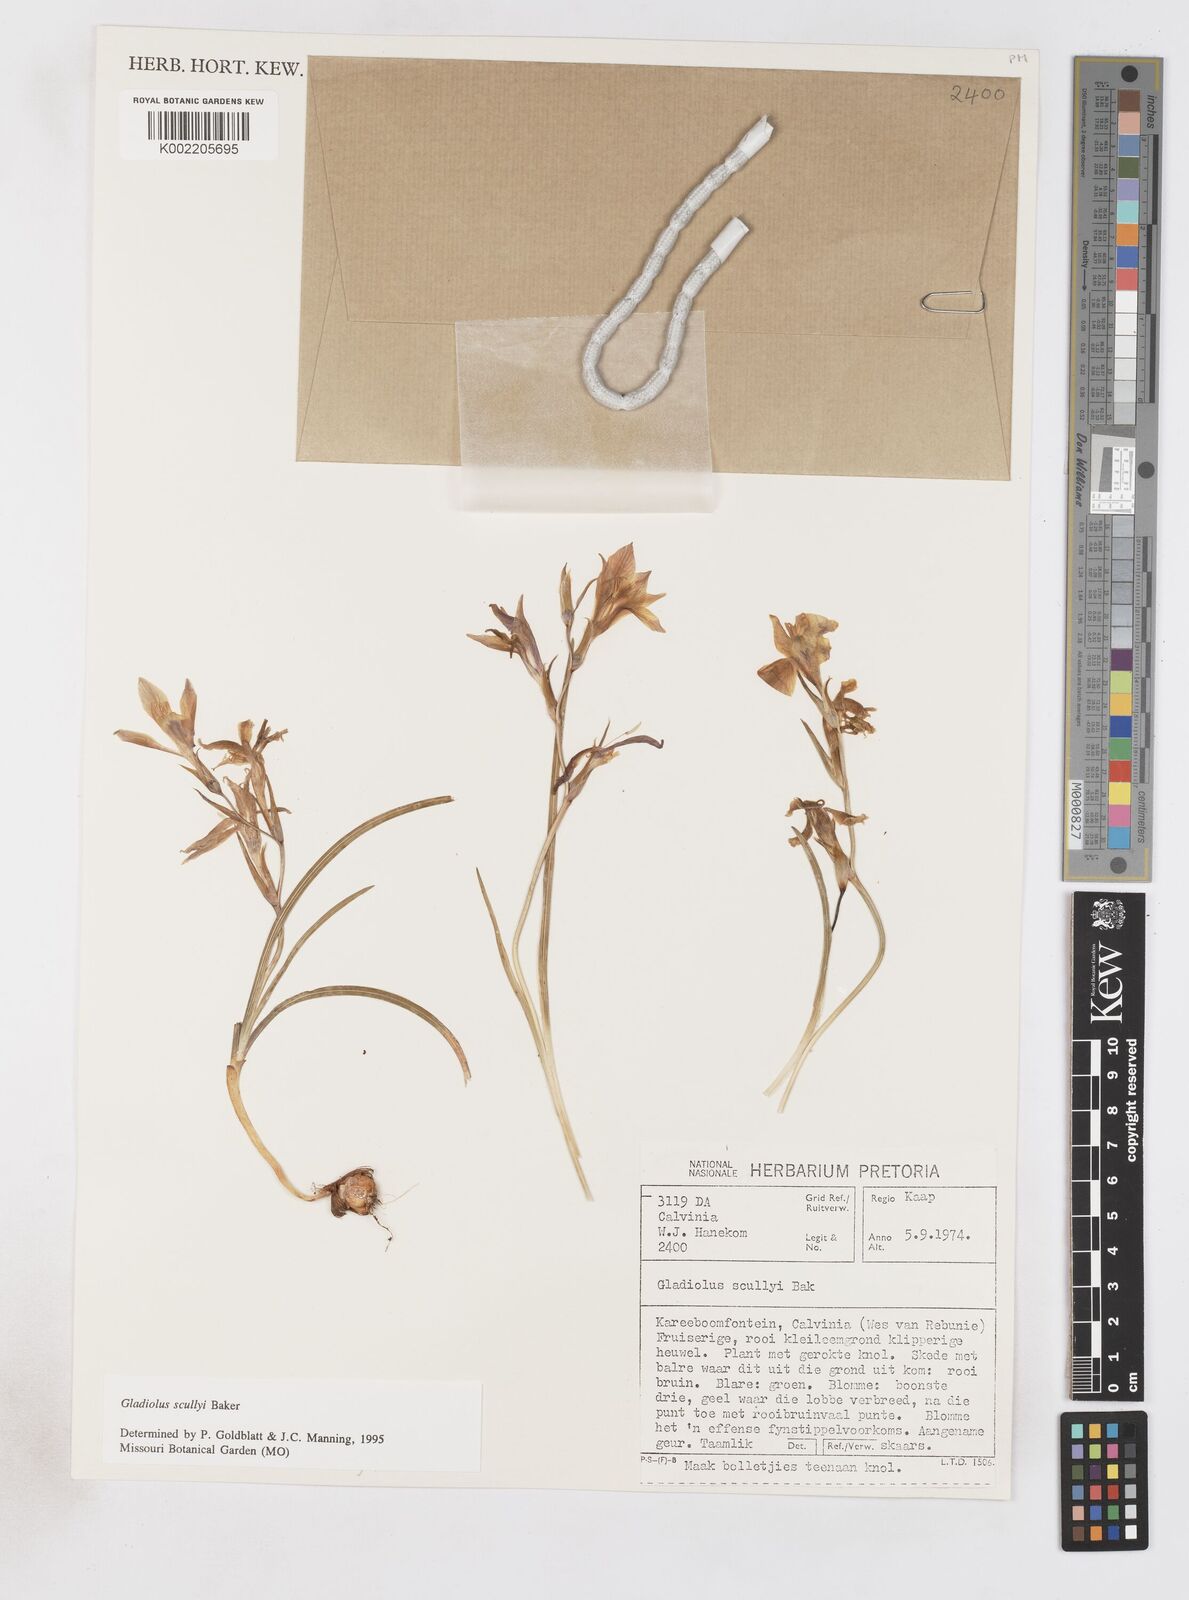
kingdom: Plantae
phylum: Tracheophyta
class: Liliopsida
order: Asparagales
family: Iridaceae
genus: Gladiolus
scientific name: Gladiolus scullyi
